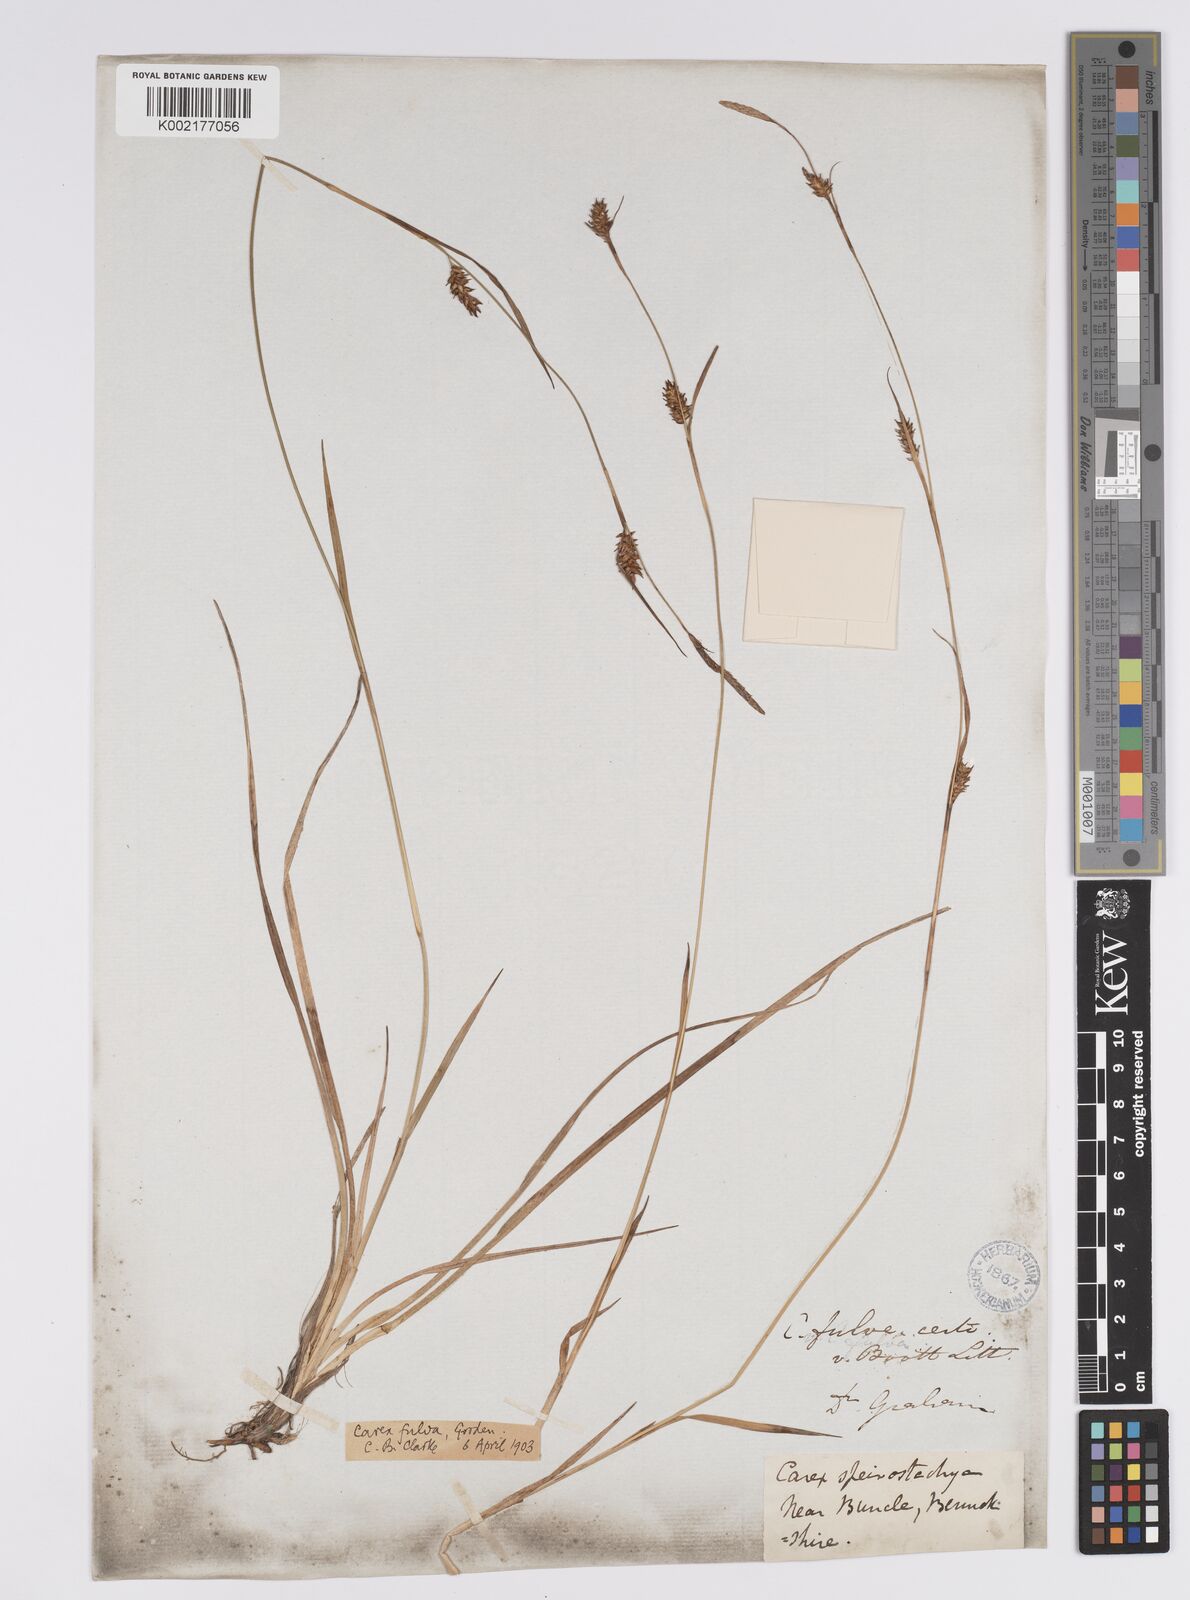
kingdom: Plantae
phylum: Tracheophyta
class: Liliopsida
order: Poales
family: Cyperaceae
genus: Carex
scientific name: Carex hostiana
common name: Tawny sedge
